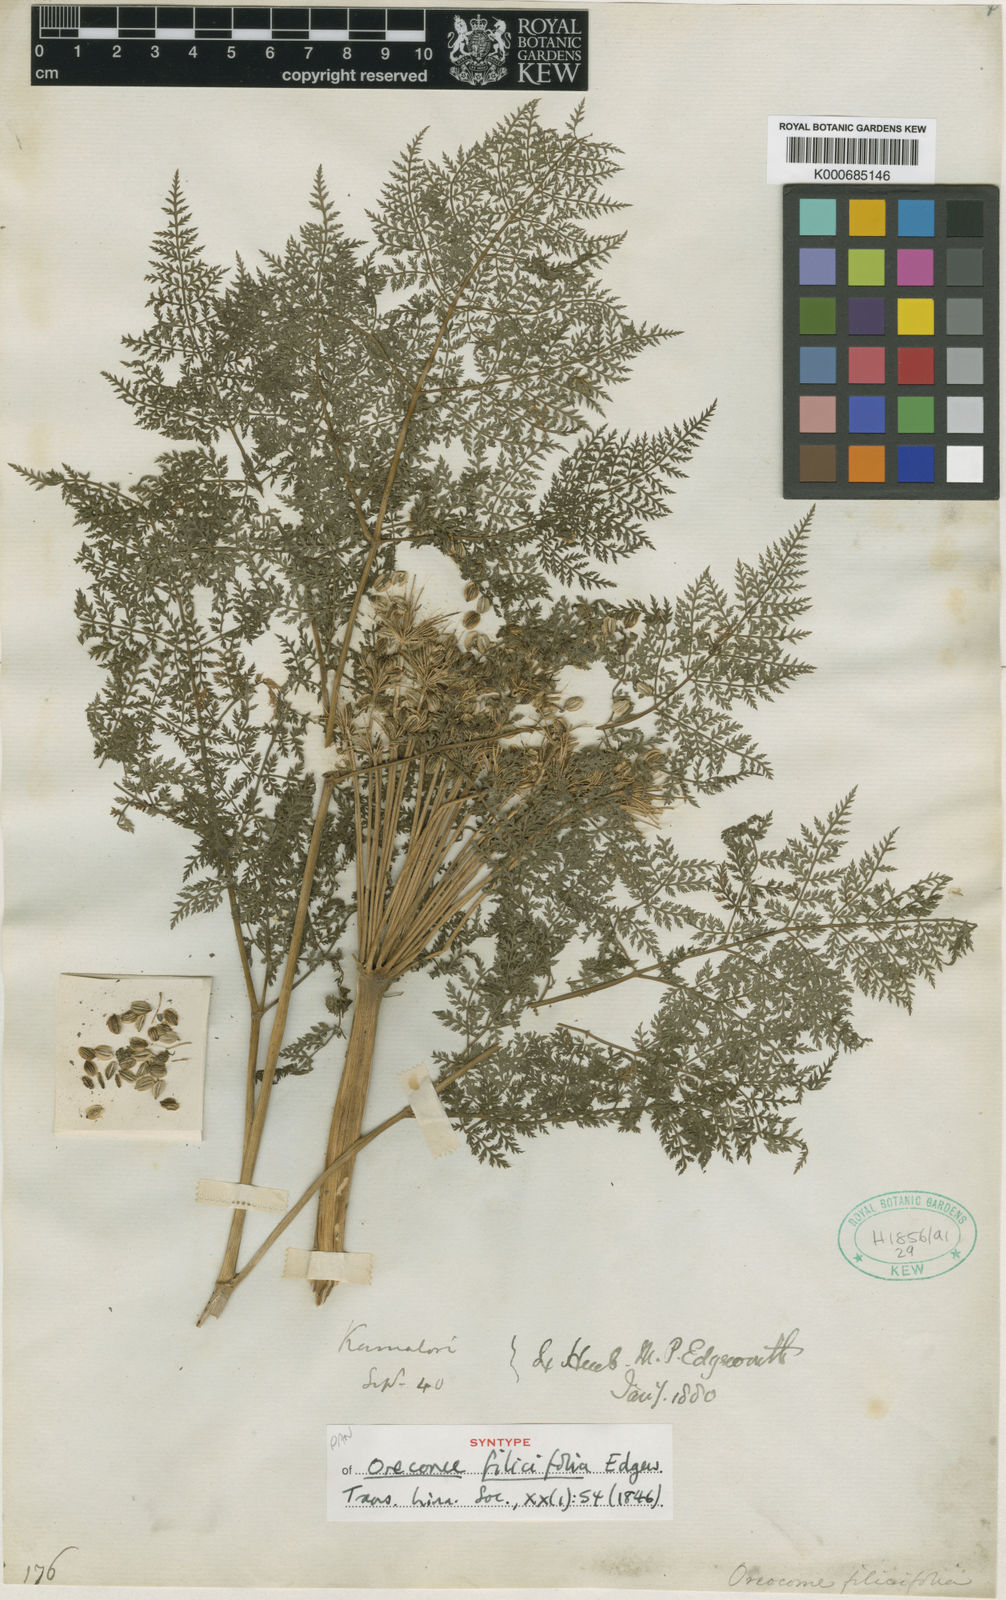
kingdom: Plantae
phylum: Tracheophyta
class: Magnoliopsida
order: Apiales
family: Apiaceae
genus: Selinum
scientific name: Selinum filicifolium
